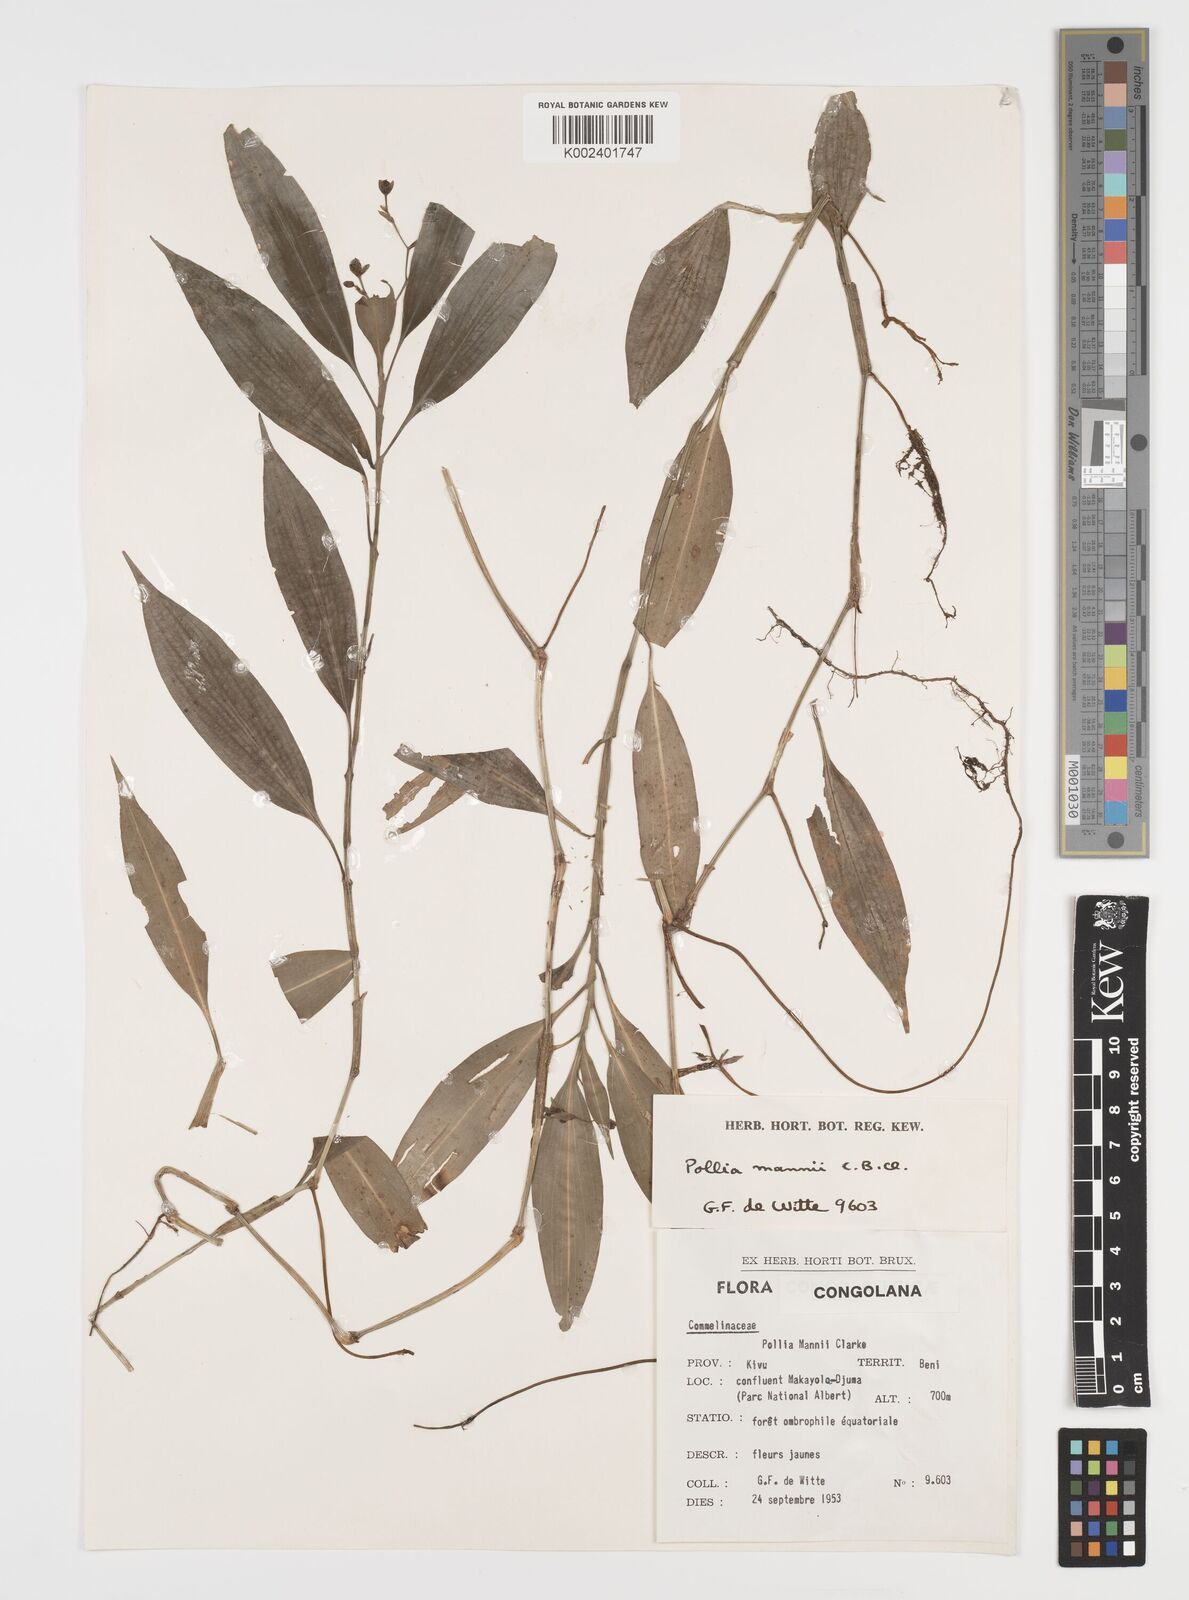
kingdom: Plantae
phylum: Tracheophyta
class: Liliopsida
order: Commelinales
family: Commelinaceae
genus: Pollia
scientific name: Pollia mannii
